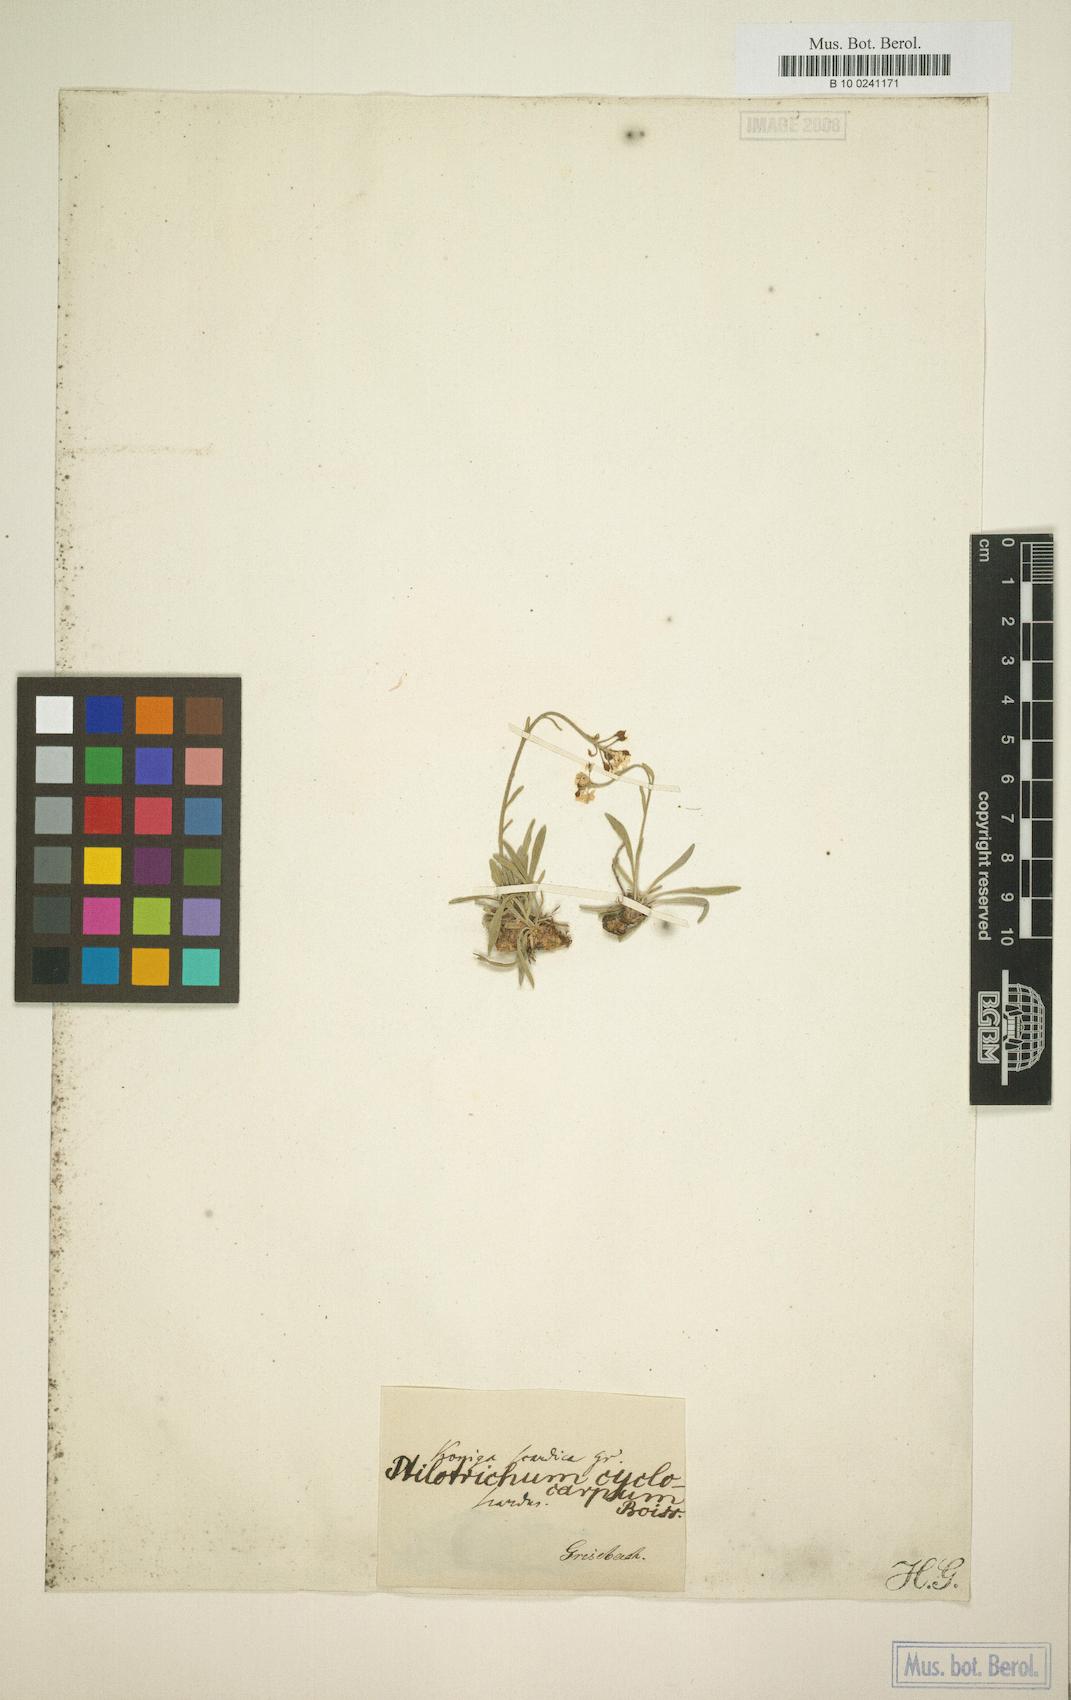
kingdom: Plantae
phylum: Tracheophyta
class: Magnoliopsida
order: Brassicales
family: Brassicaceae
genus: Phyllolepidium
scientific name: Phyllolepidium cyclocarpum
